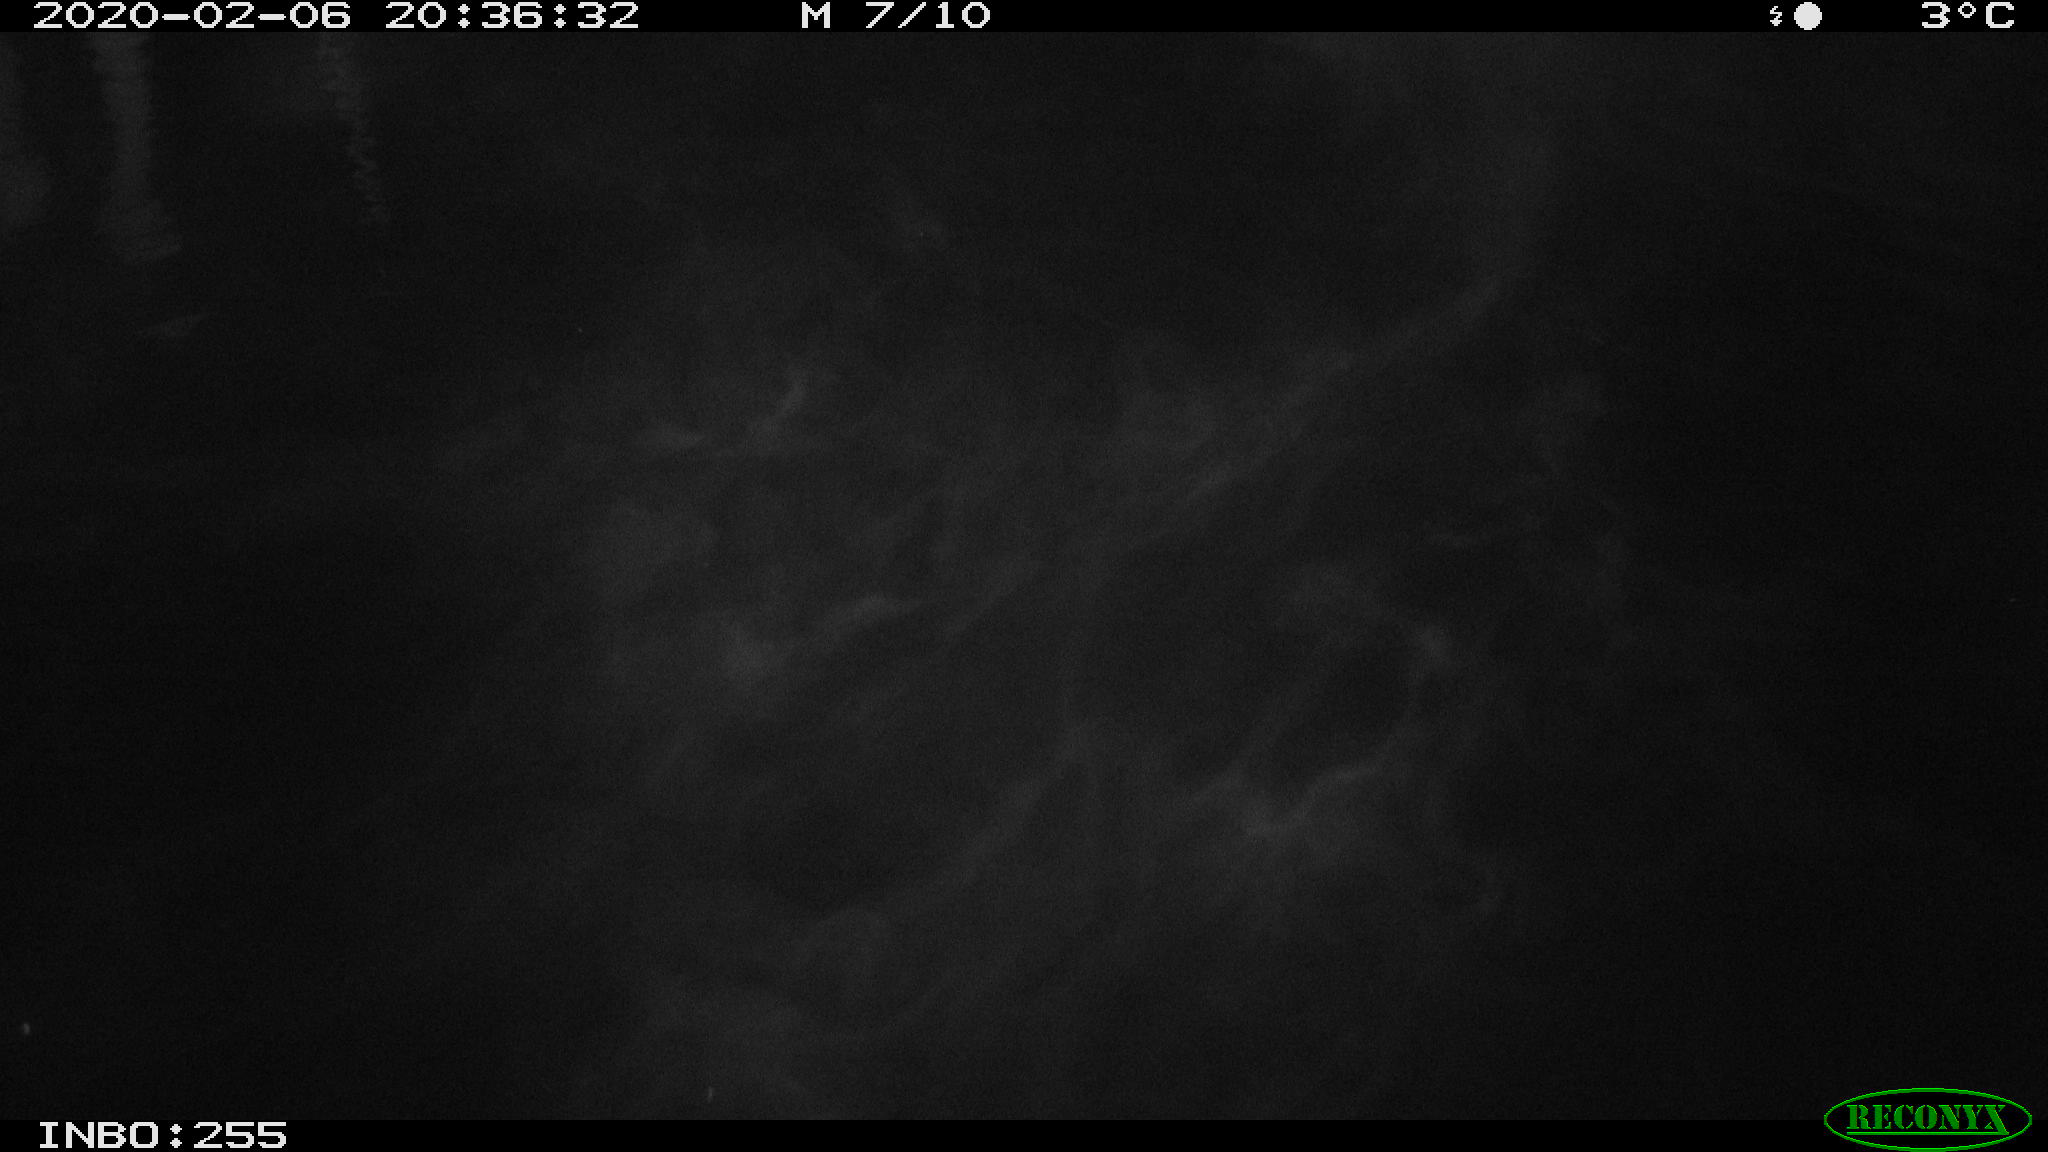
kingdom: Animalia
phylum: Chordata
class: Aves
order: Gruiformes
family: Rallidae
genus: Gallinula
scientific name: Gallinula chloropus
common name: Common moorhen
